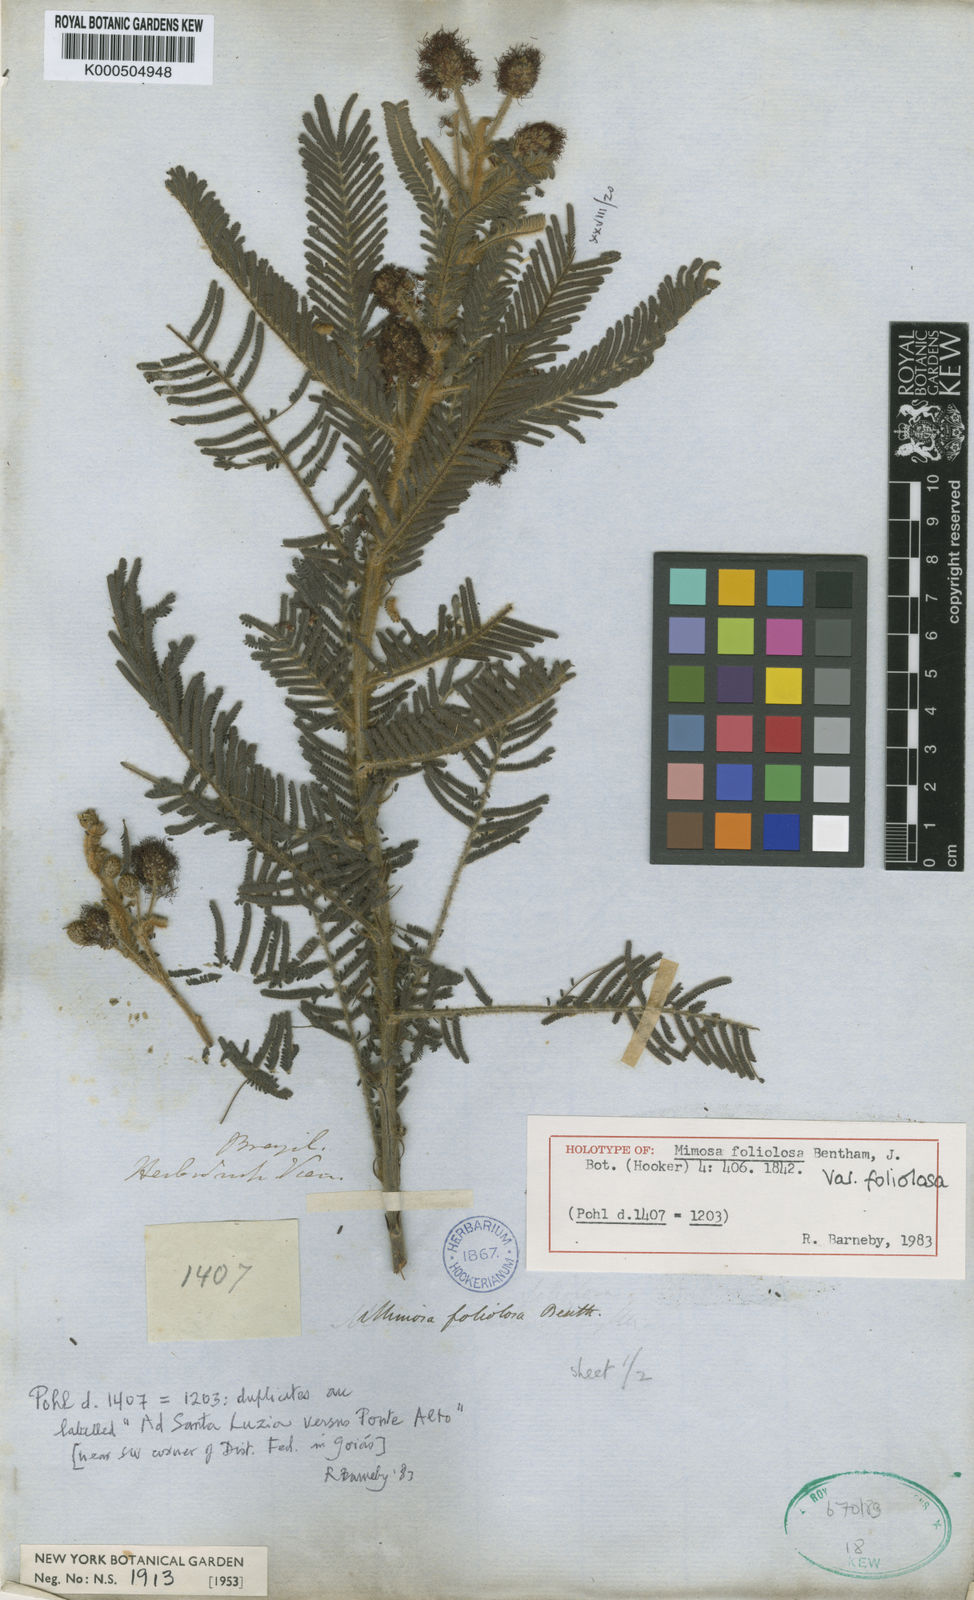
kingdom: Plantae
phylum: Tracheophyta
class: Magnoliopsida
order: Fabales
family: Fabaceae
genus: Mimosa
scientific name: Mimosa
